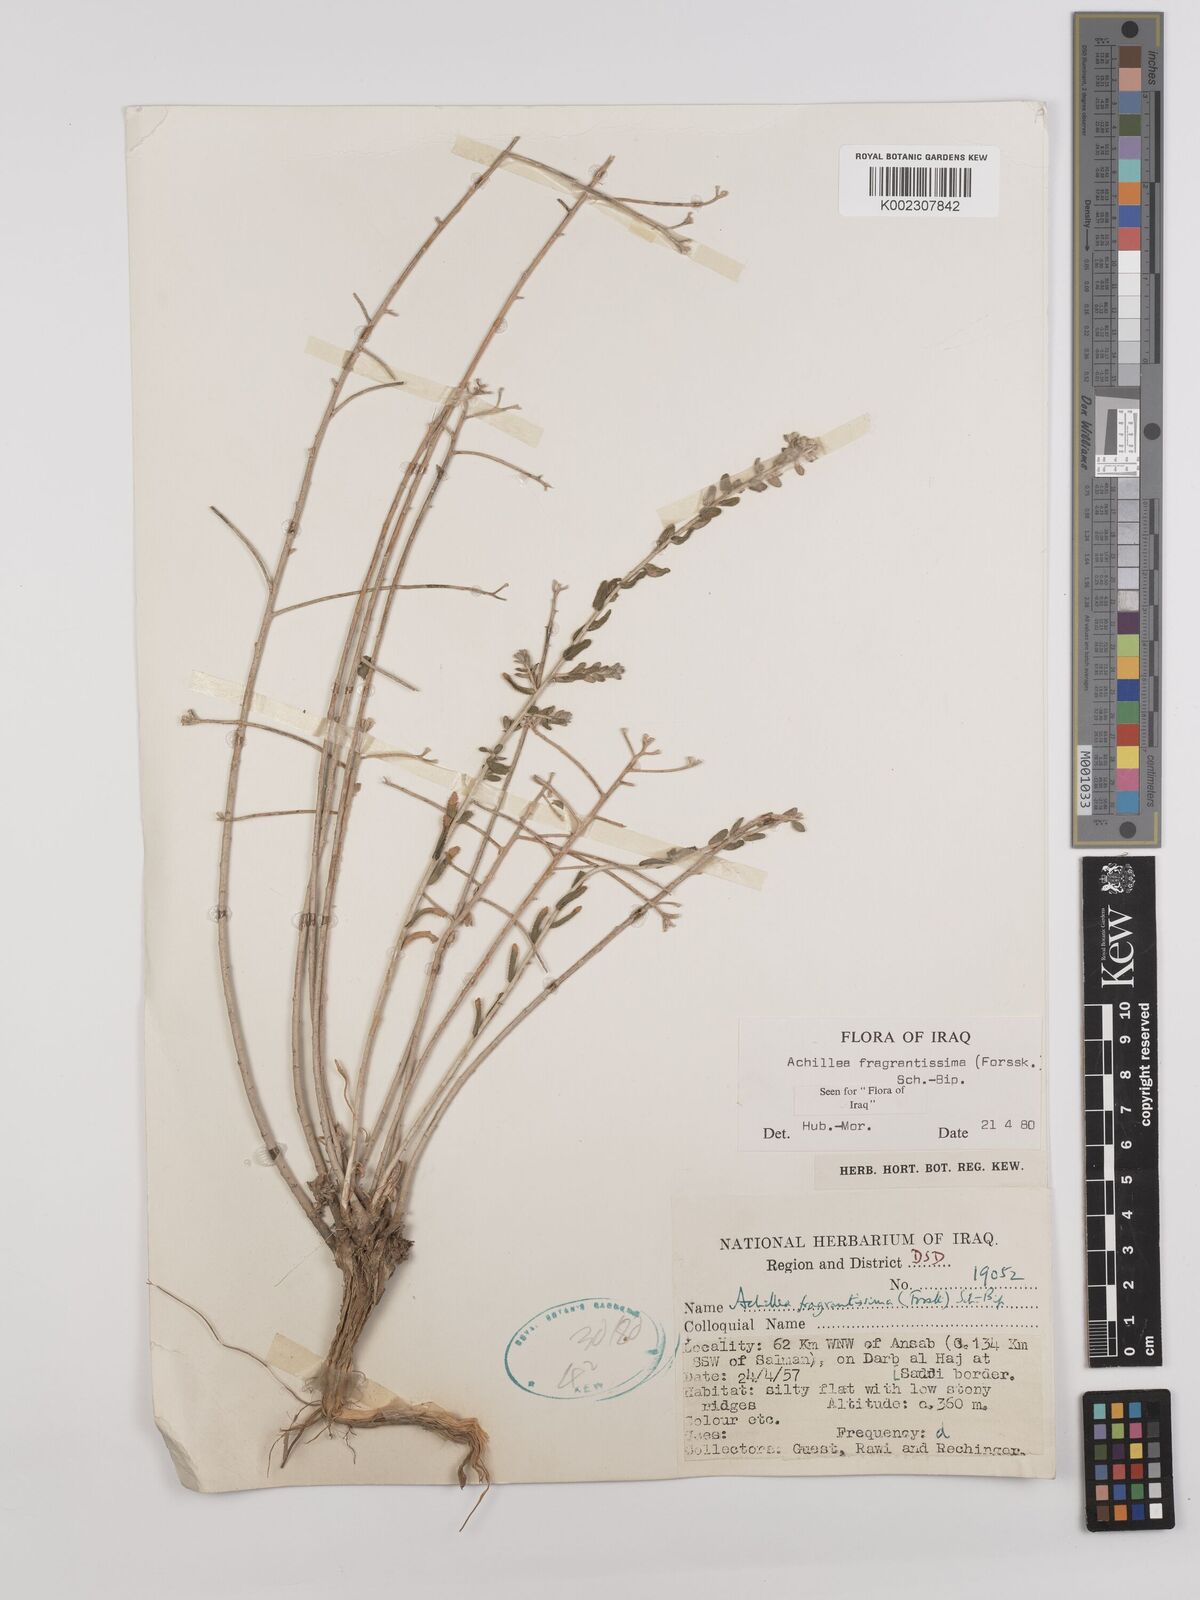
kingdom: Plantae
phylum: Tracheophyta
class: Magnoliopsida
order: Asterales
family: Asteraceae
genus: Achillea
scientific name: Achillea fragrantissima
